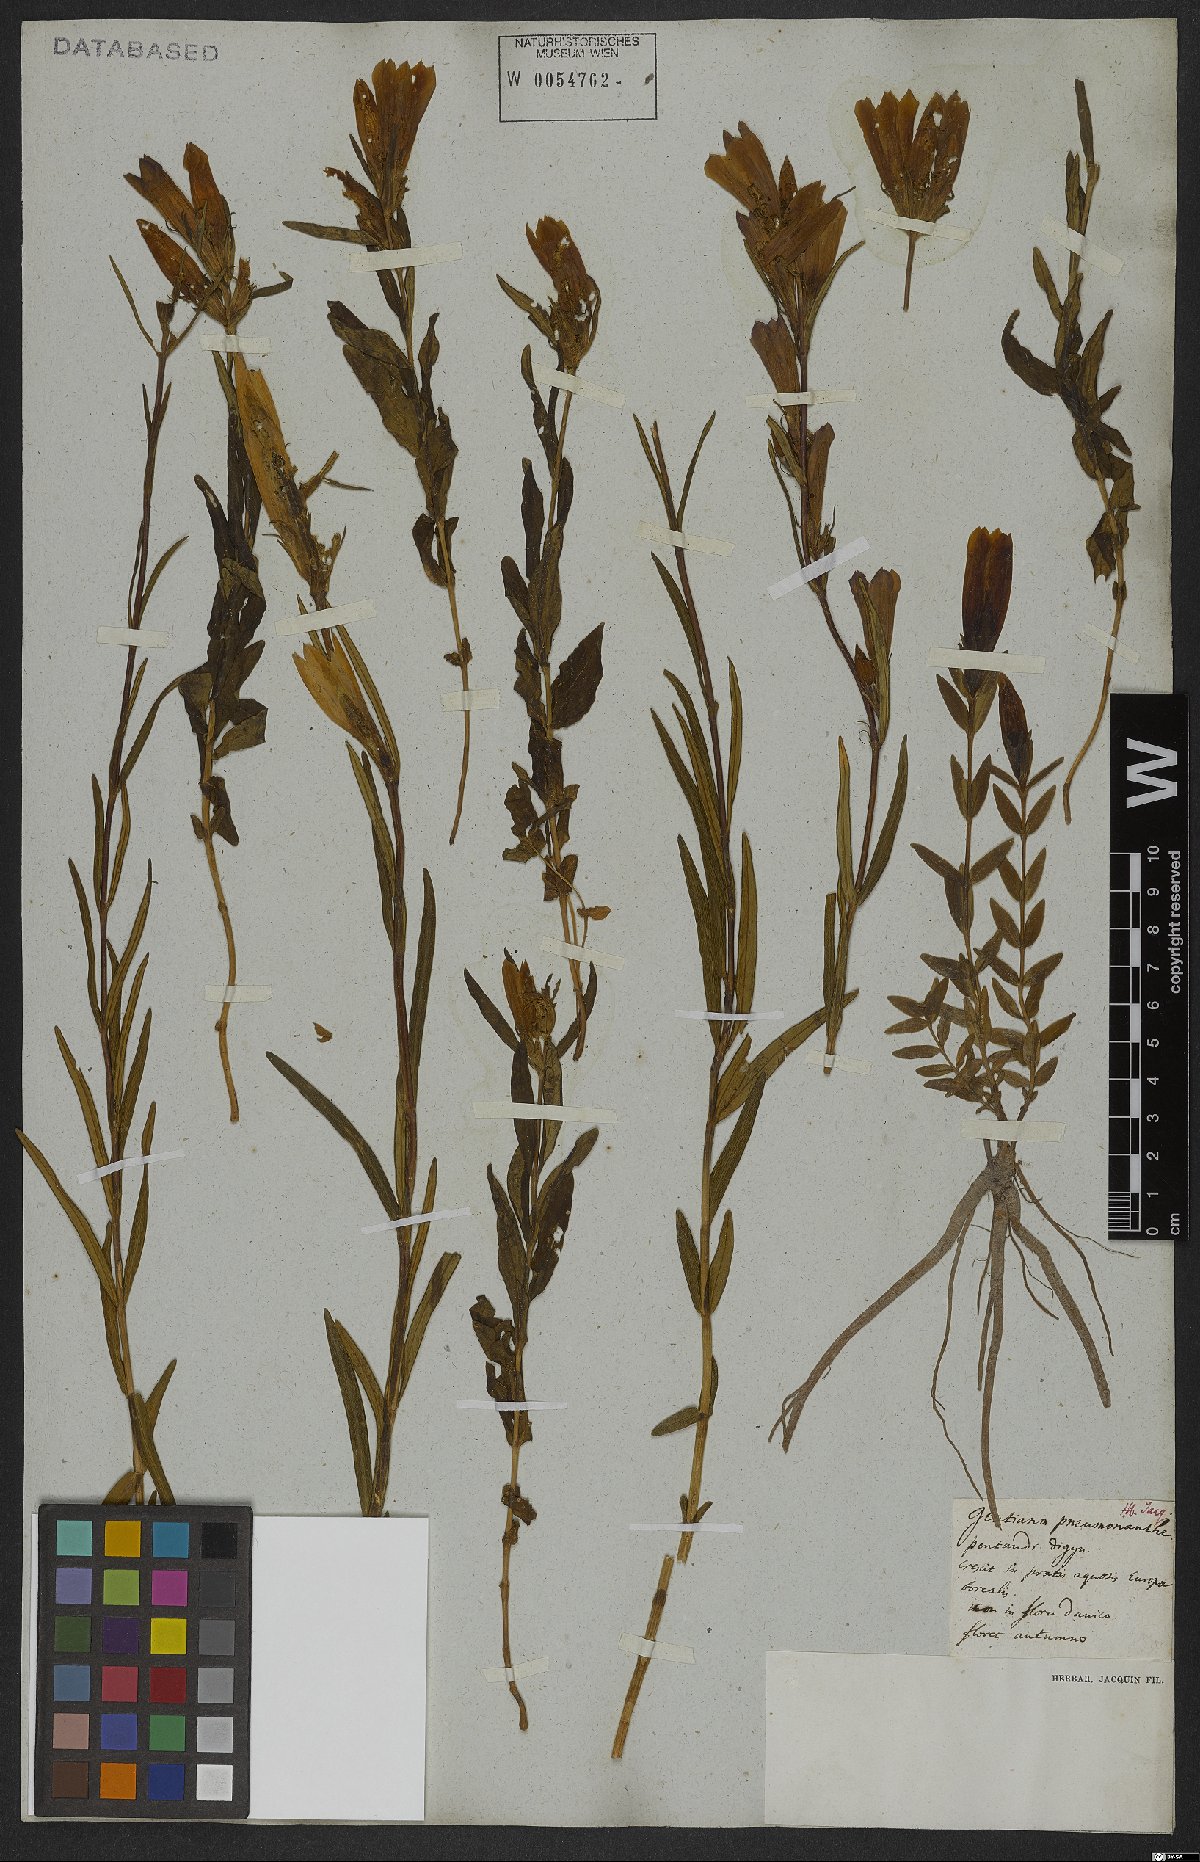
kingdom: Plantae
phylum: Tracheophyta
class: Magnoliopsida
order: Gentianales
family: Gentianaceae
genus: Gentiana
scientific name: Gentiana pneumonanthe
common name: Marsh gentian
